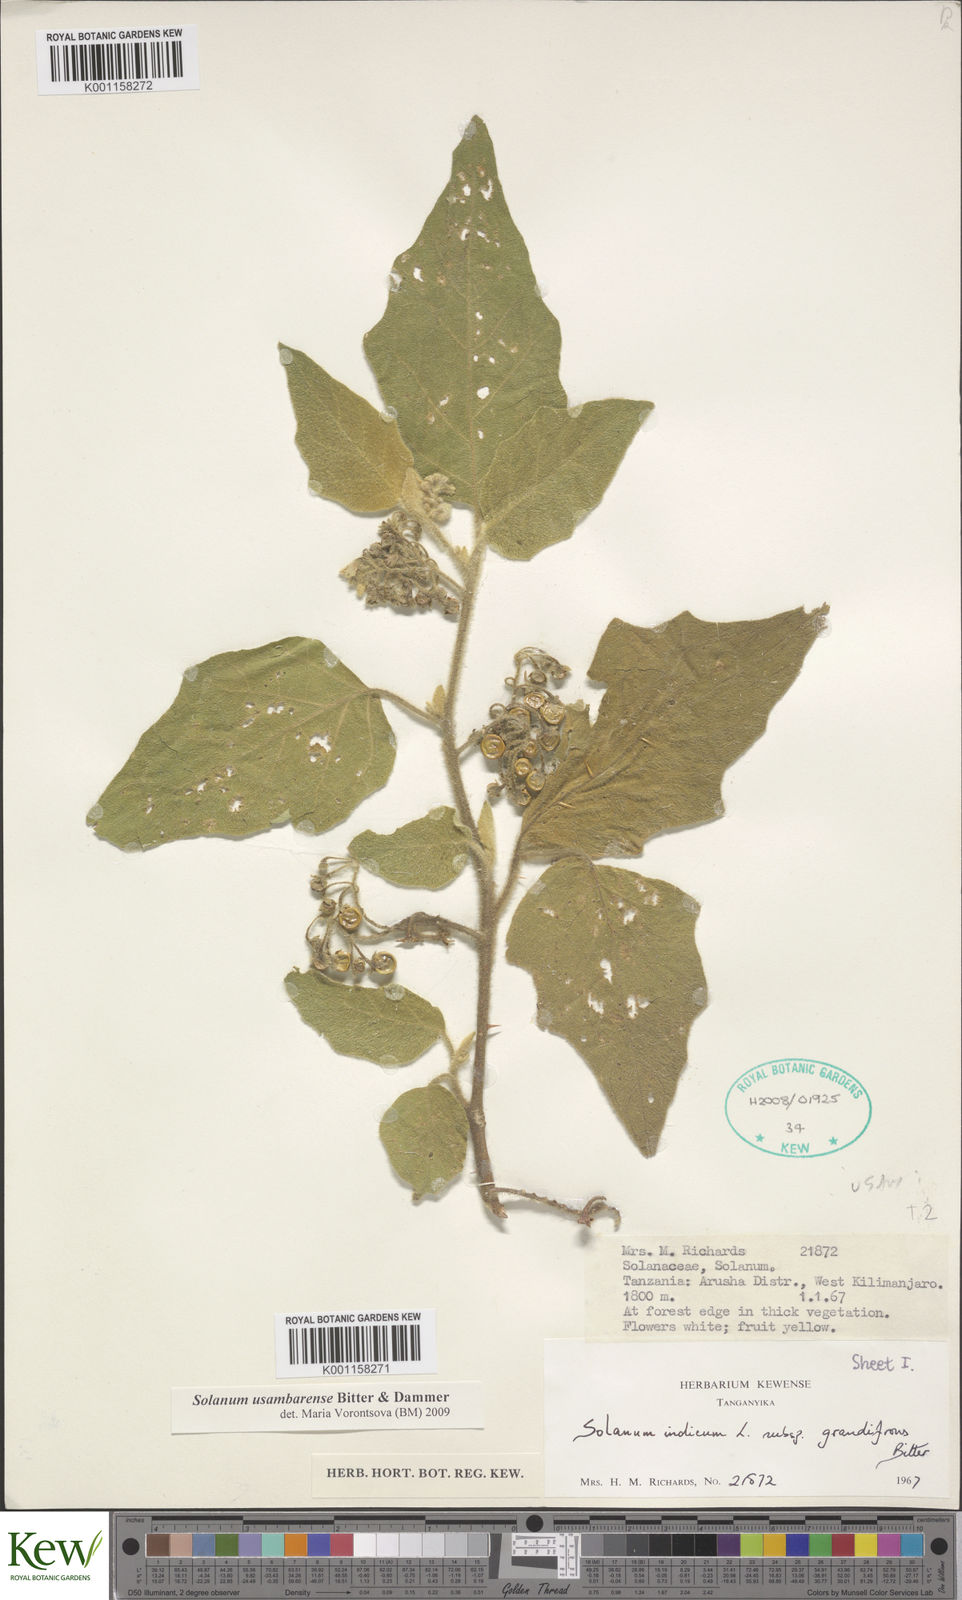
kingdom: Plantae
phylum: Tracheophyta
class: Magnoliopsida
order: Solanales
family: Solanaceae
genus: Solanum
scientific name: Solanum usambarense
